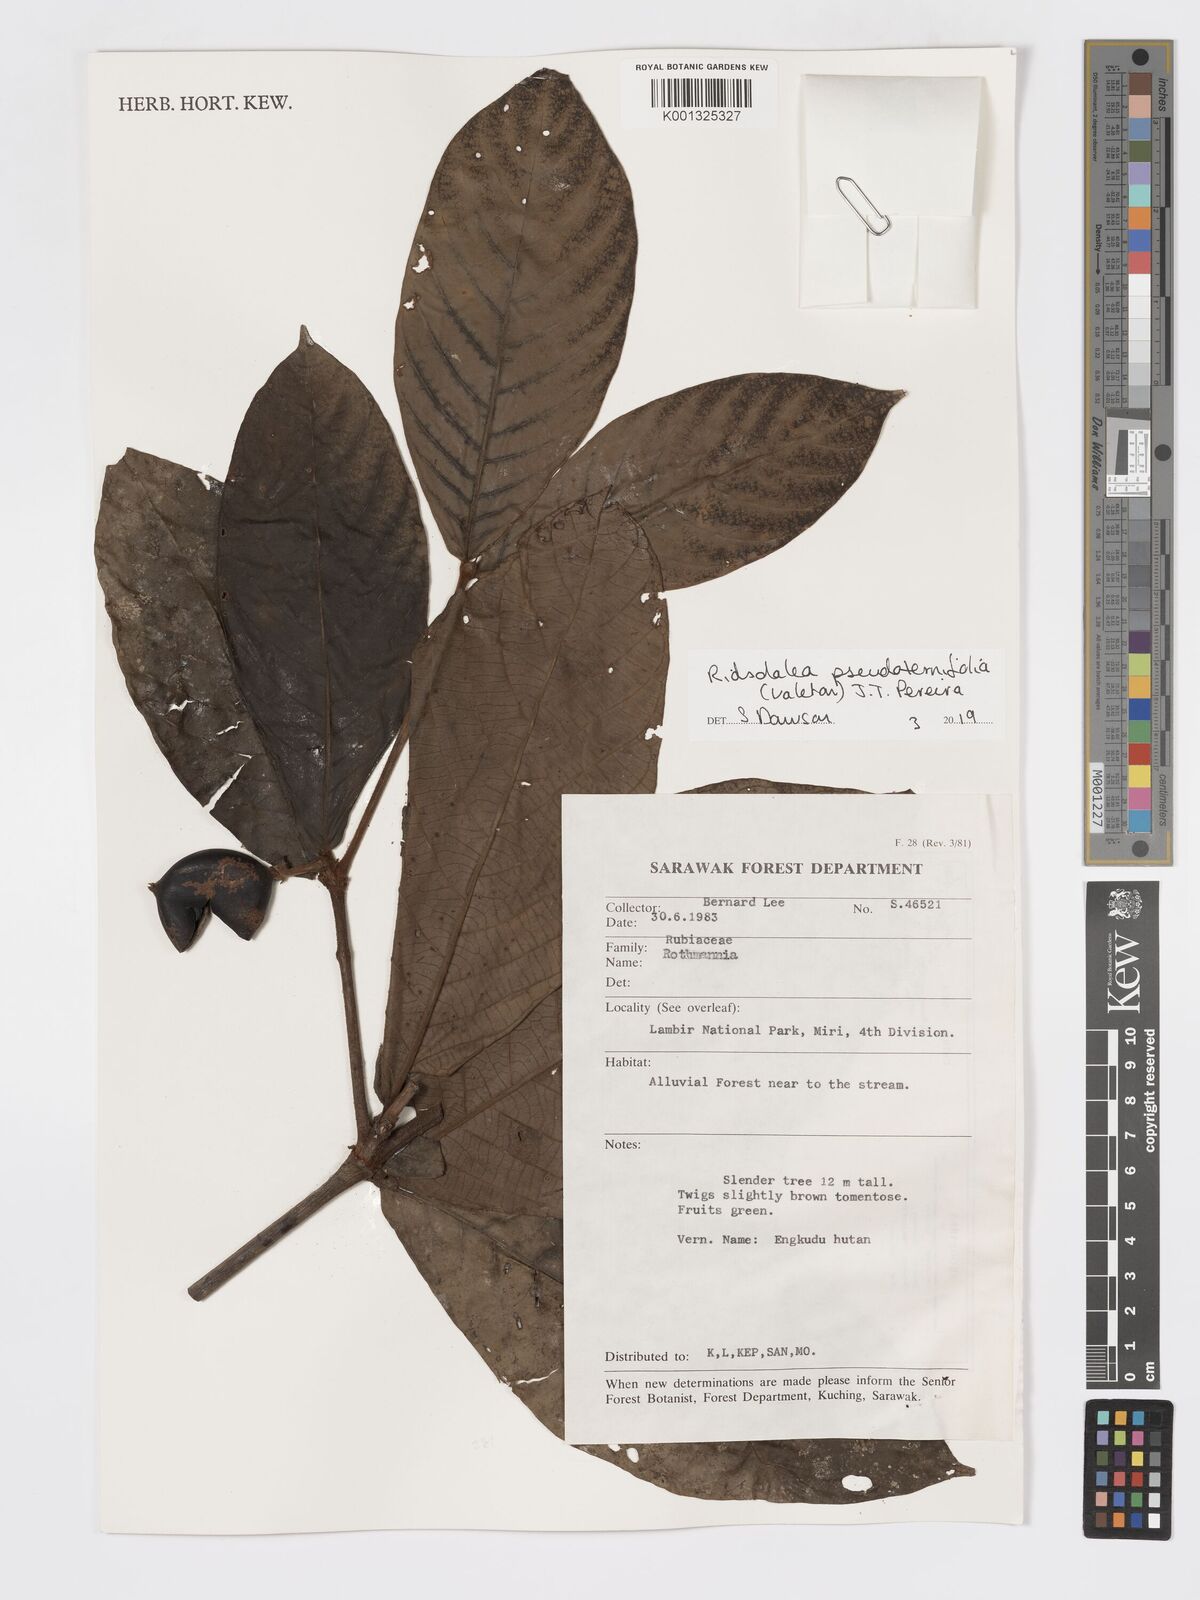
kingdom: Plantae
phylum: Tracheophyta
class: Magnoliopsida
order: Gentianales
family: Rubiaceae
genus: Ridsdalea
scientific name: Ridsdalea pseudoternifolia
